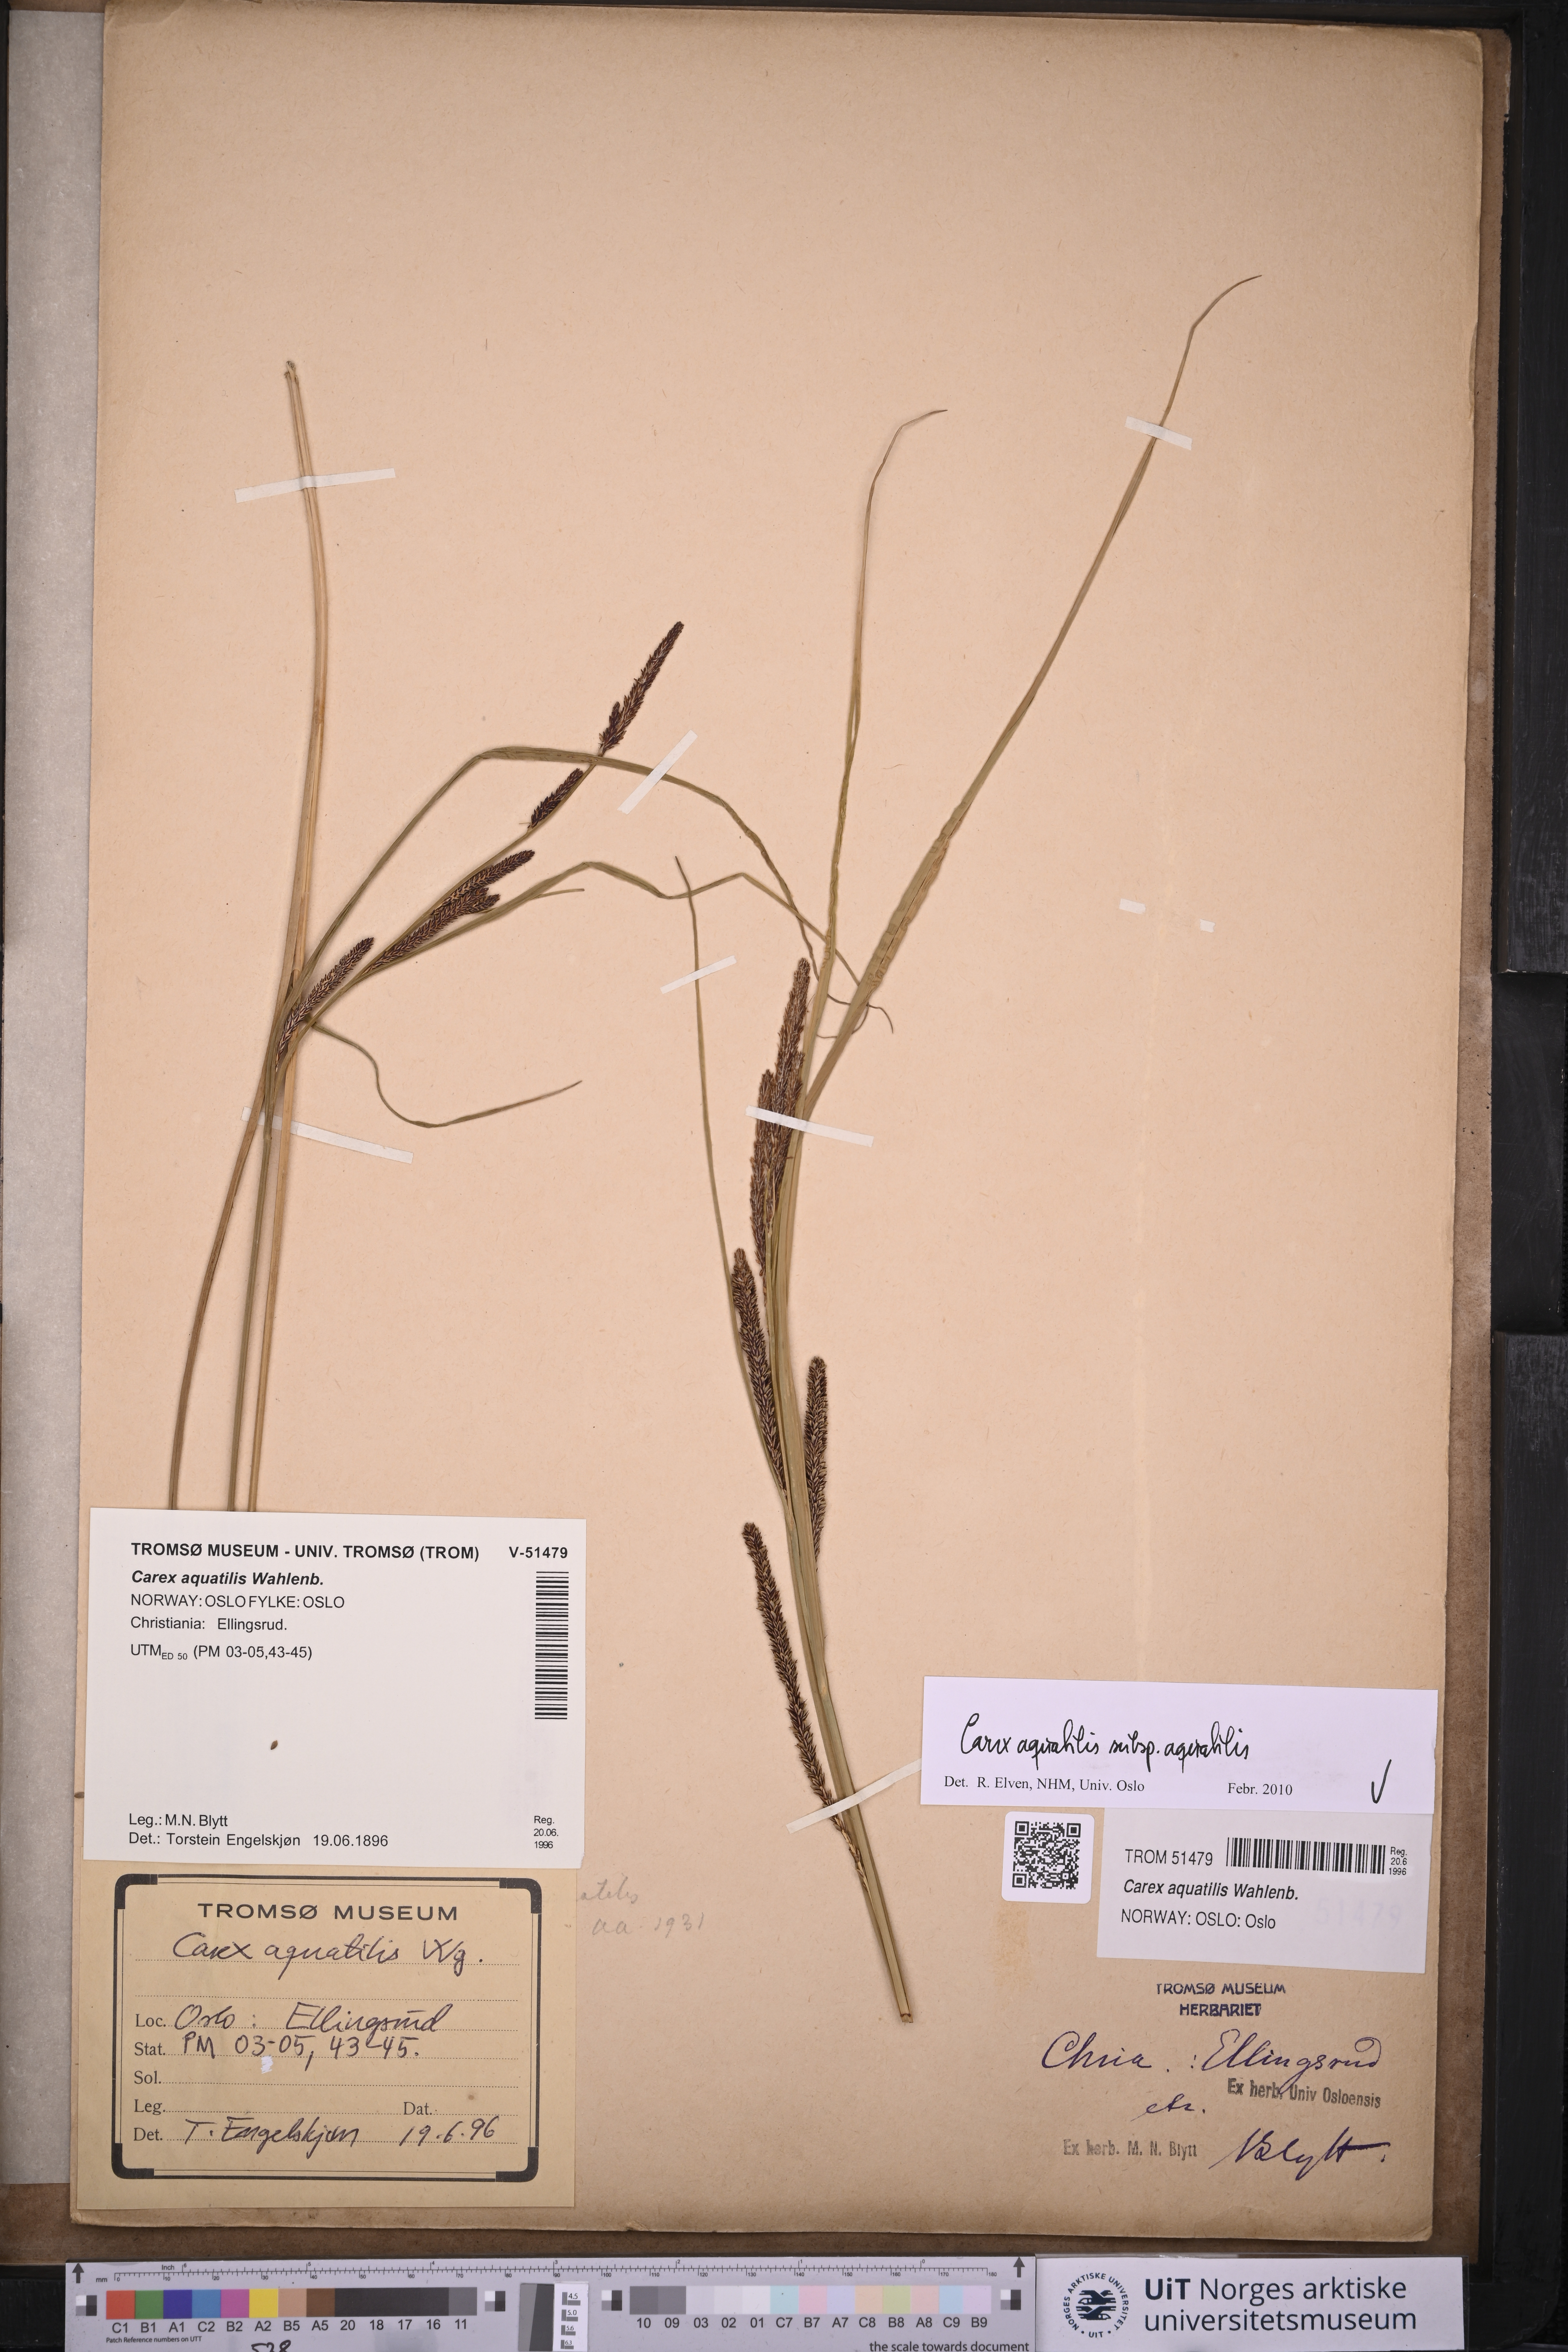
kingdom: Plantae
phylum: Tracheophyta
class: Liliopsida
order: Poales
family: Cyperaceae
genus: Carex
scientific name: Carex aquatilis
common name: Water sedge
